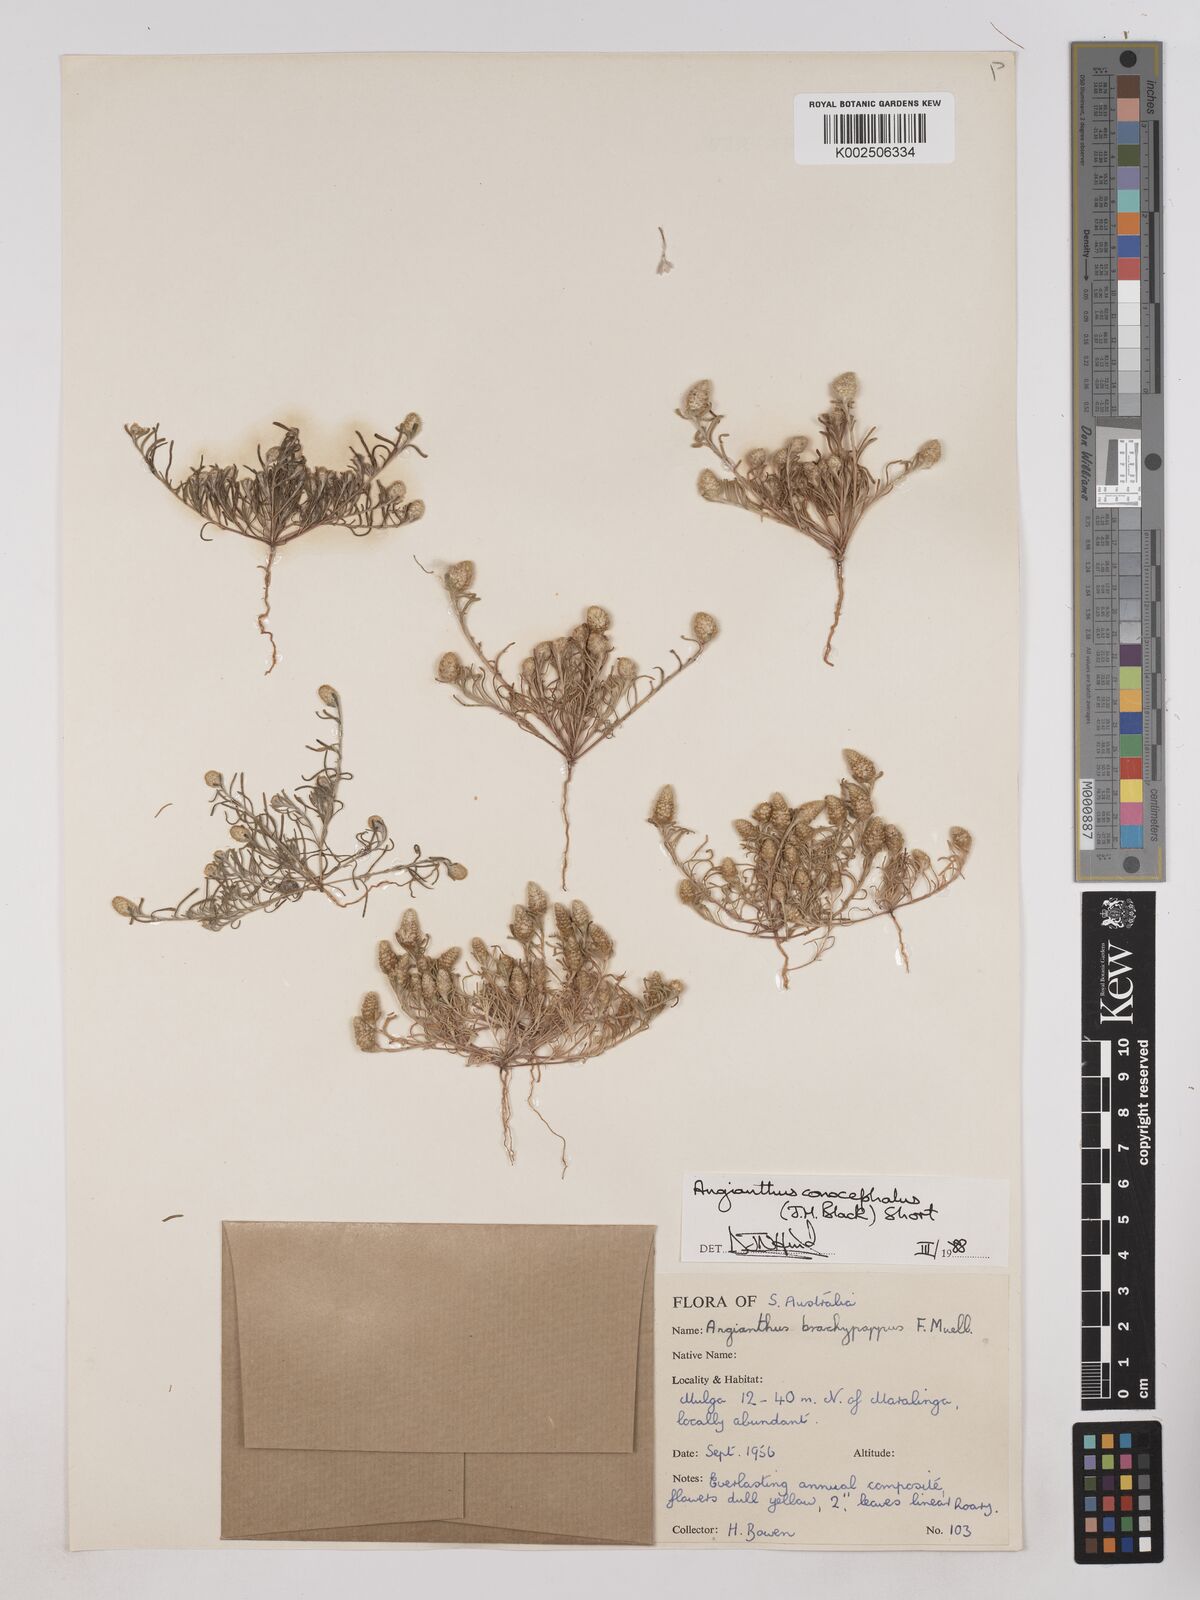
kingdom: Plantae
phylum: Tracheophyta
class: Magnoliopsida
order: Asterales
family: Asteraceae
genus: Angianthus
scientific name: Angianthus conocephalus
